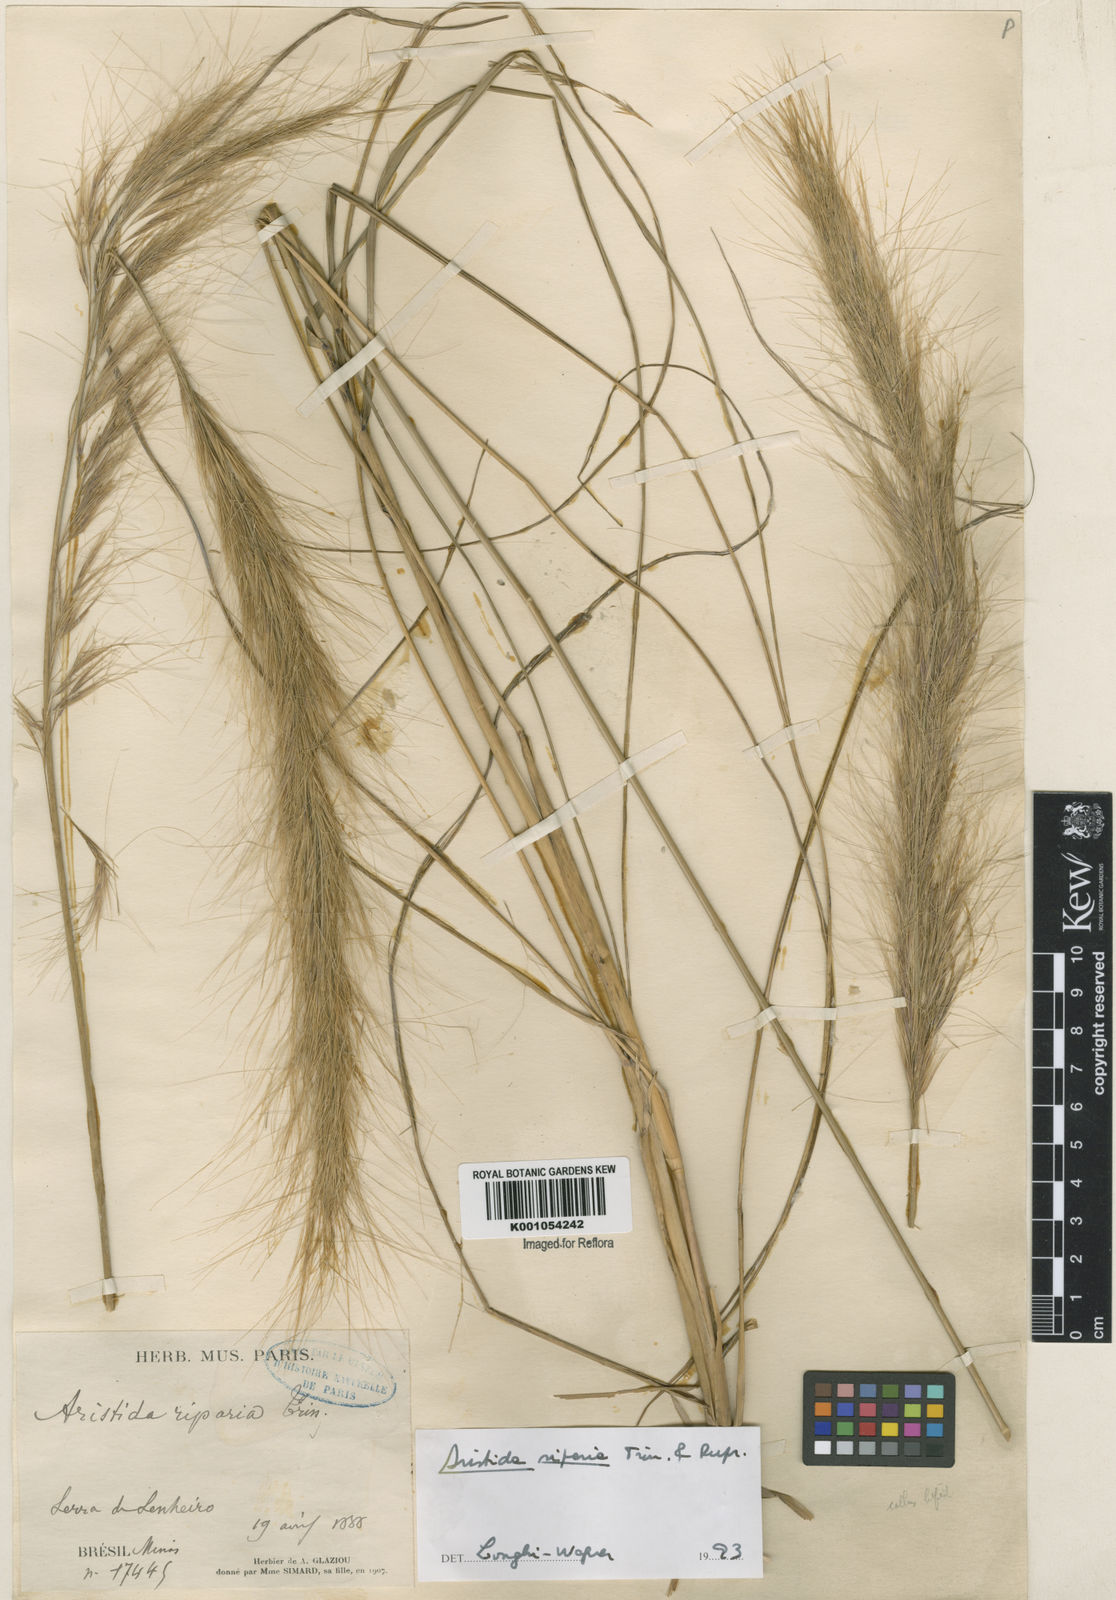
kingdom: Plantae
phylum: Tracheophyta
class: Liliopsida
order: Poales
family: Poaceae
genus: Aristida
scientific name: Aristida riparia
